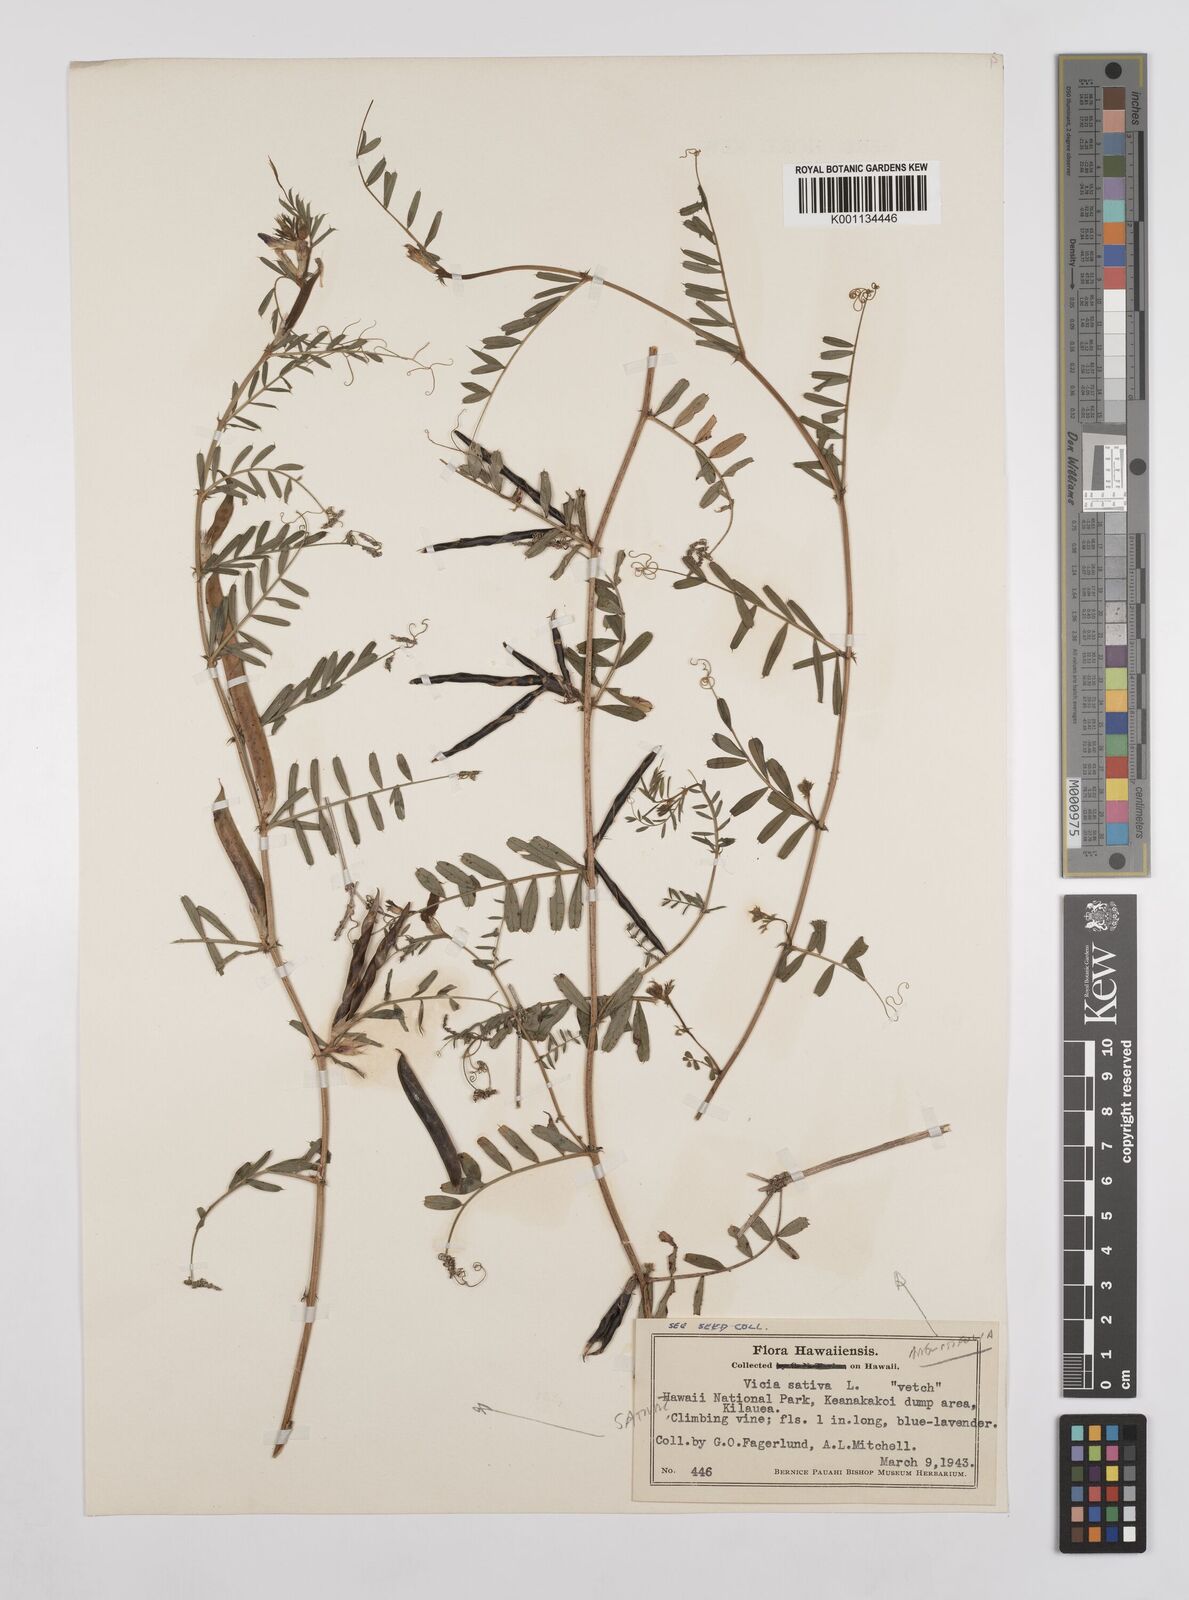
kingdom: Plantae
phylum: Tracheophyta
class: Magnoliopsida
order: Fabales
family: Fabaceae
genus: Vicia
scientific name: Vicia sativa
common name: Garden vetch
